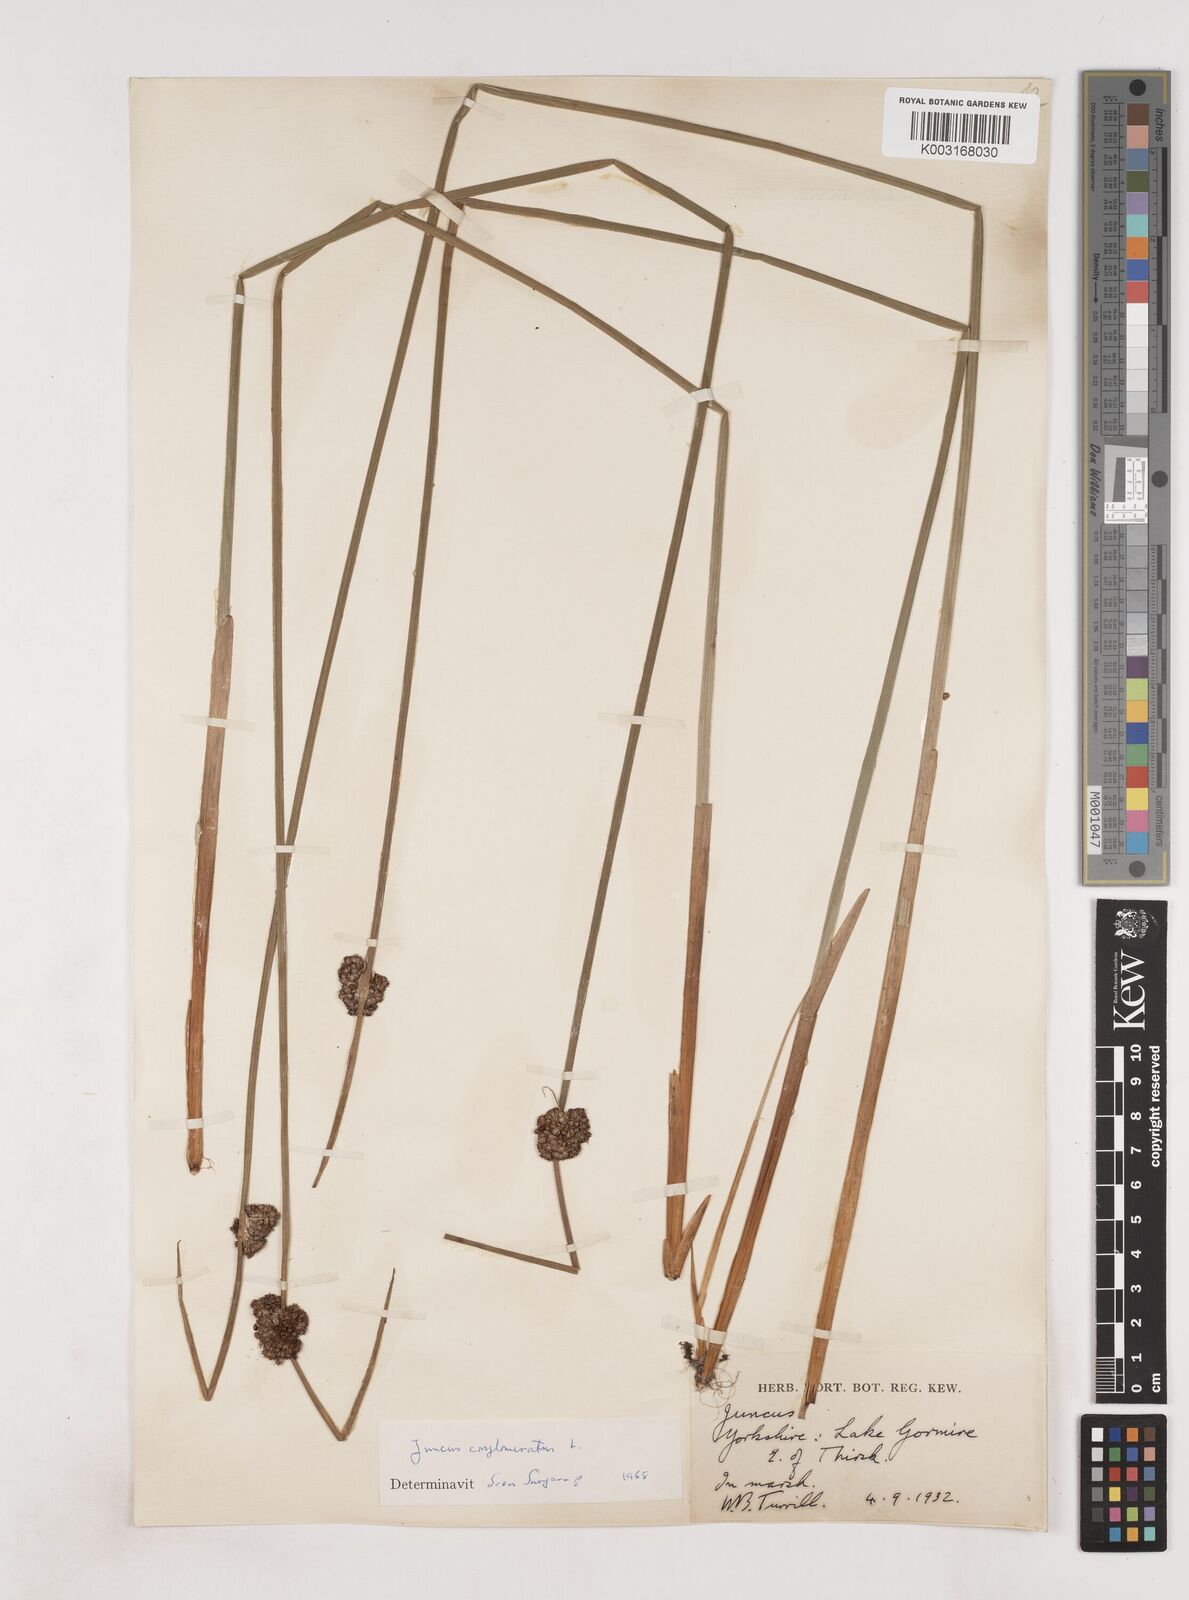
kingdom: Plantae
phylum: Tracheophyta
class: Liliopsida
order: Poales
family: Juncaceae
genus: Juncus
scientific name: Juncus conglomeratus
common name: Compact rush
